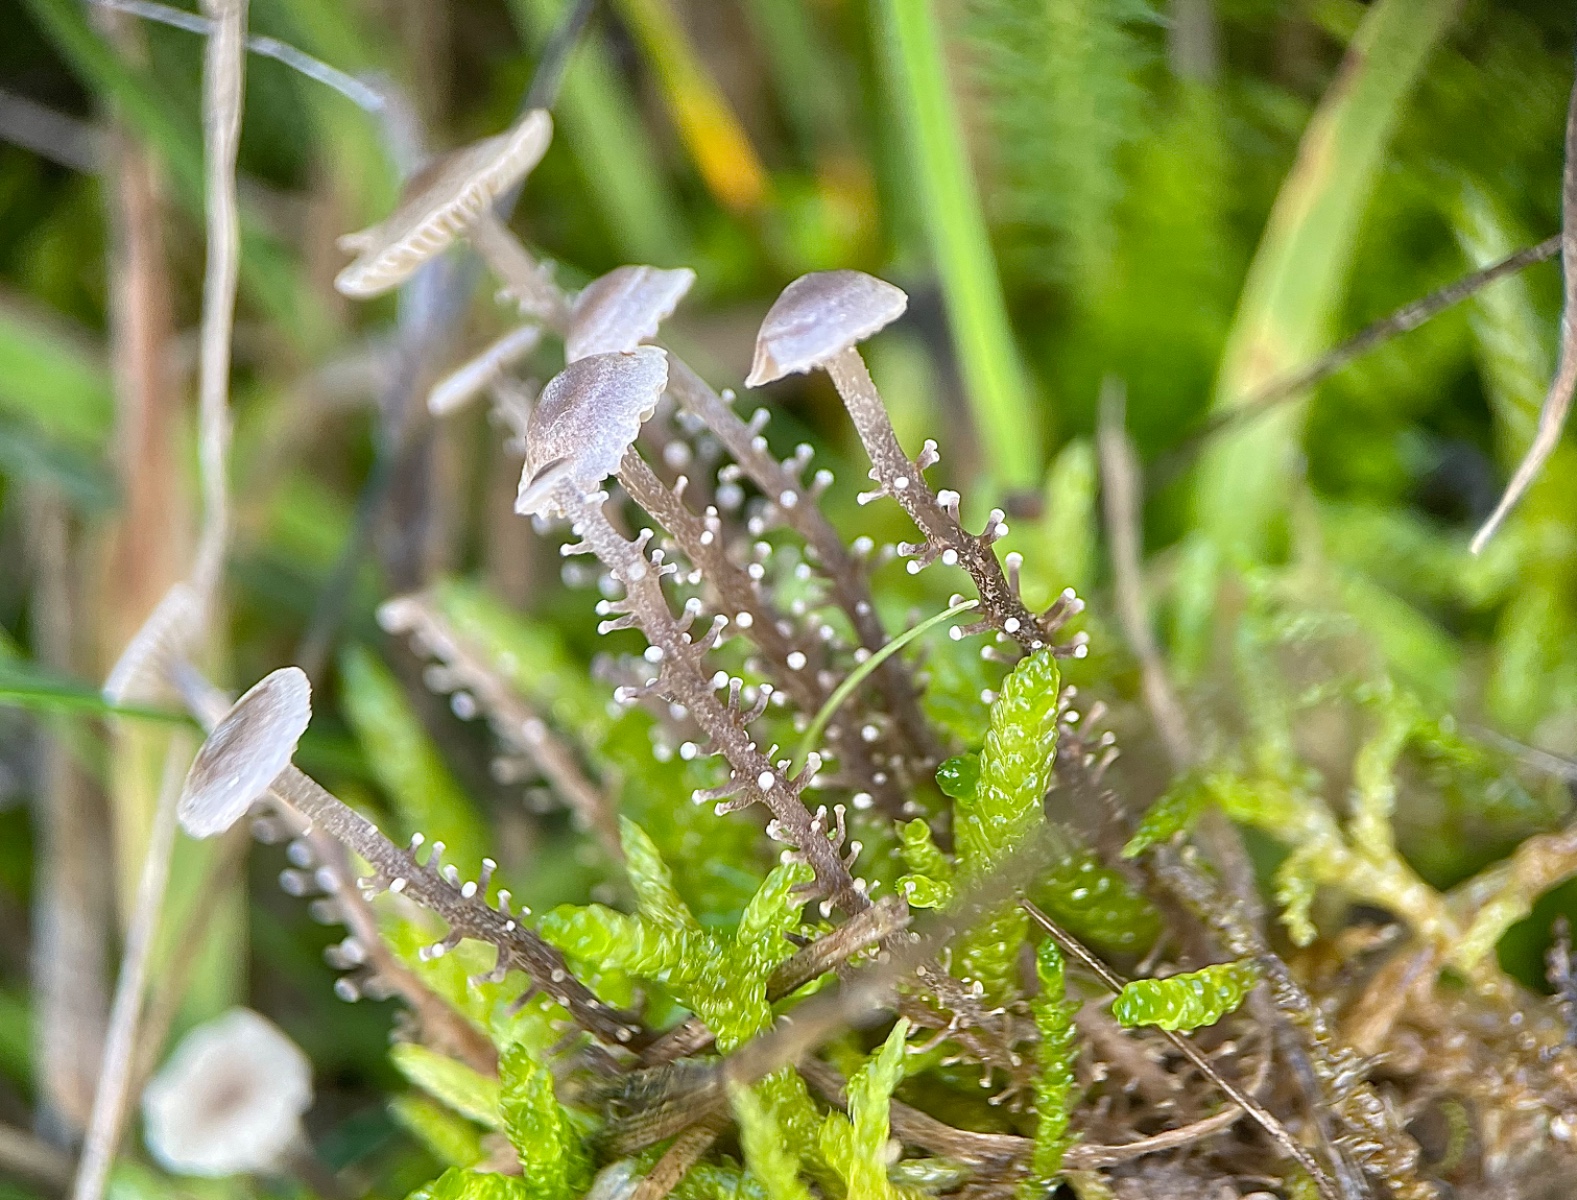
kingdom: Fungi
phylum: Basidiomycota
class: Agaricomycetes
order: Agaricales
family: Tricholomataceae
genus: Dendrocollybia
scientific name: Dendrocollybia racemosa
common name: grenet lighat
